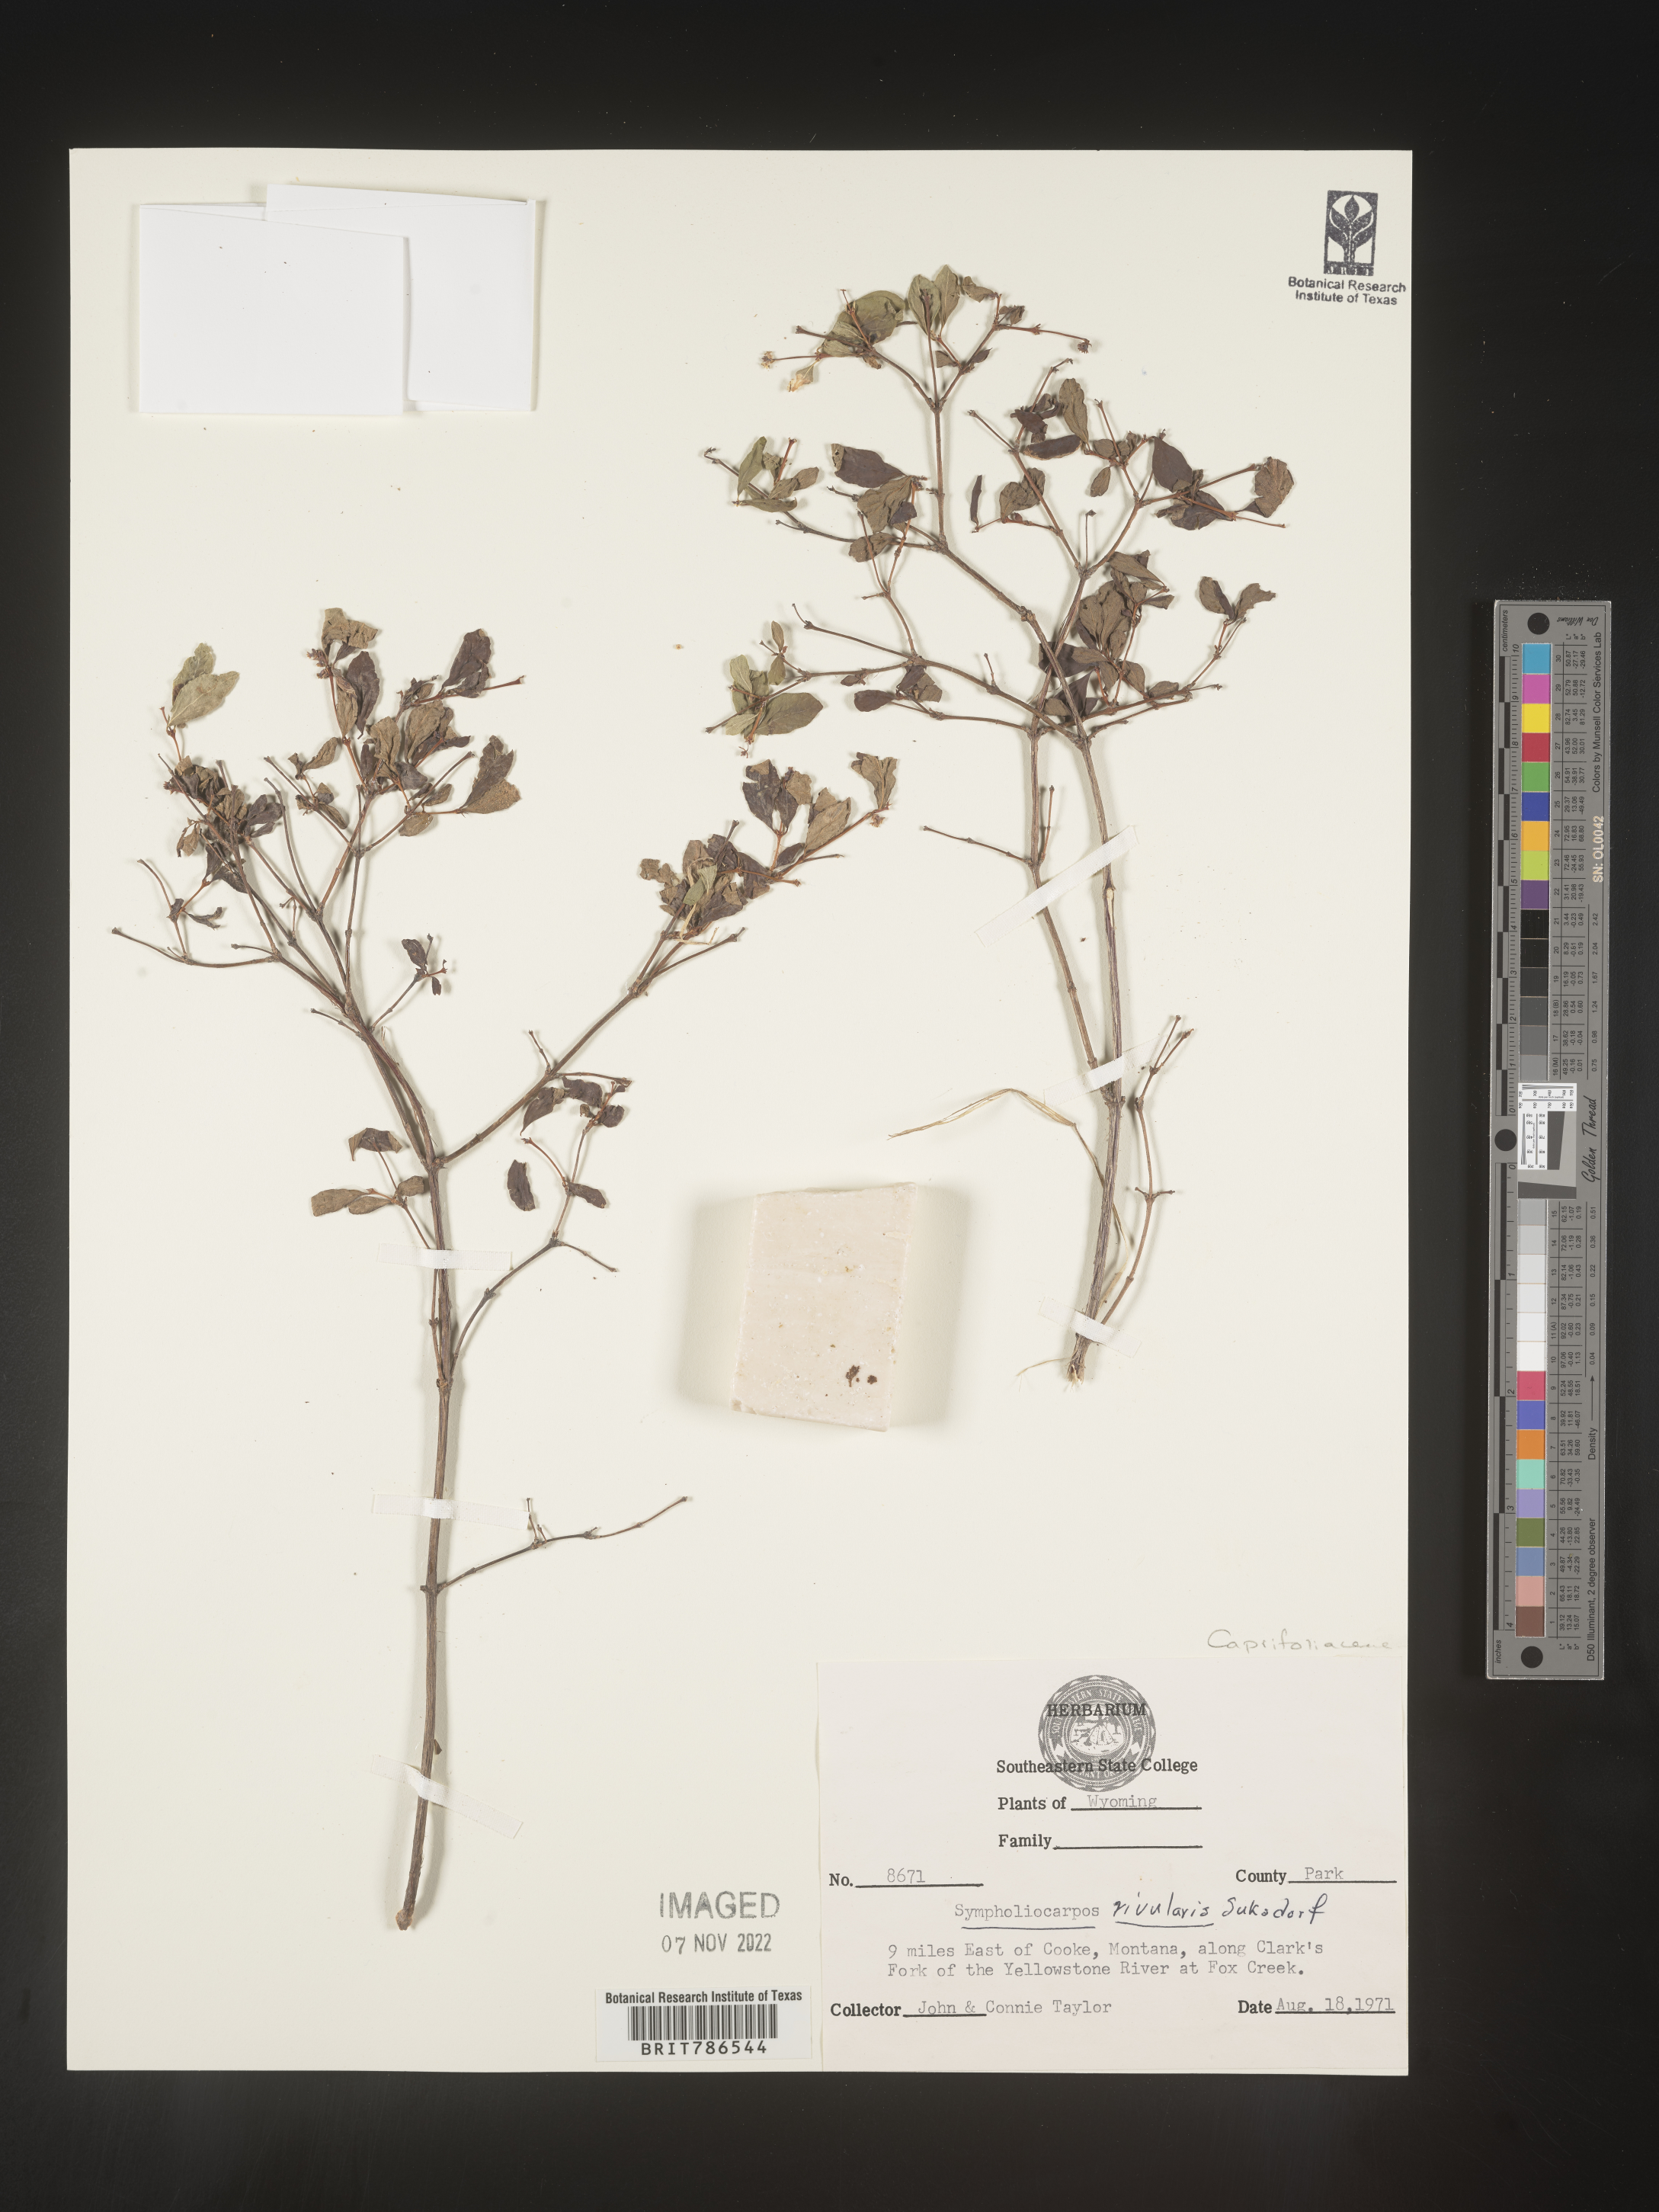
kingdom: Plantae
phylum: Tracheophyta
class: Magnoliopsida
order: Dipsacales
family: Caprifoliaceae
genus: Symphoricarpos
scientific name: Symphoricarpos
